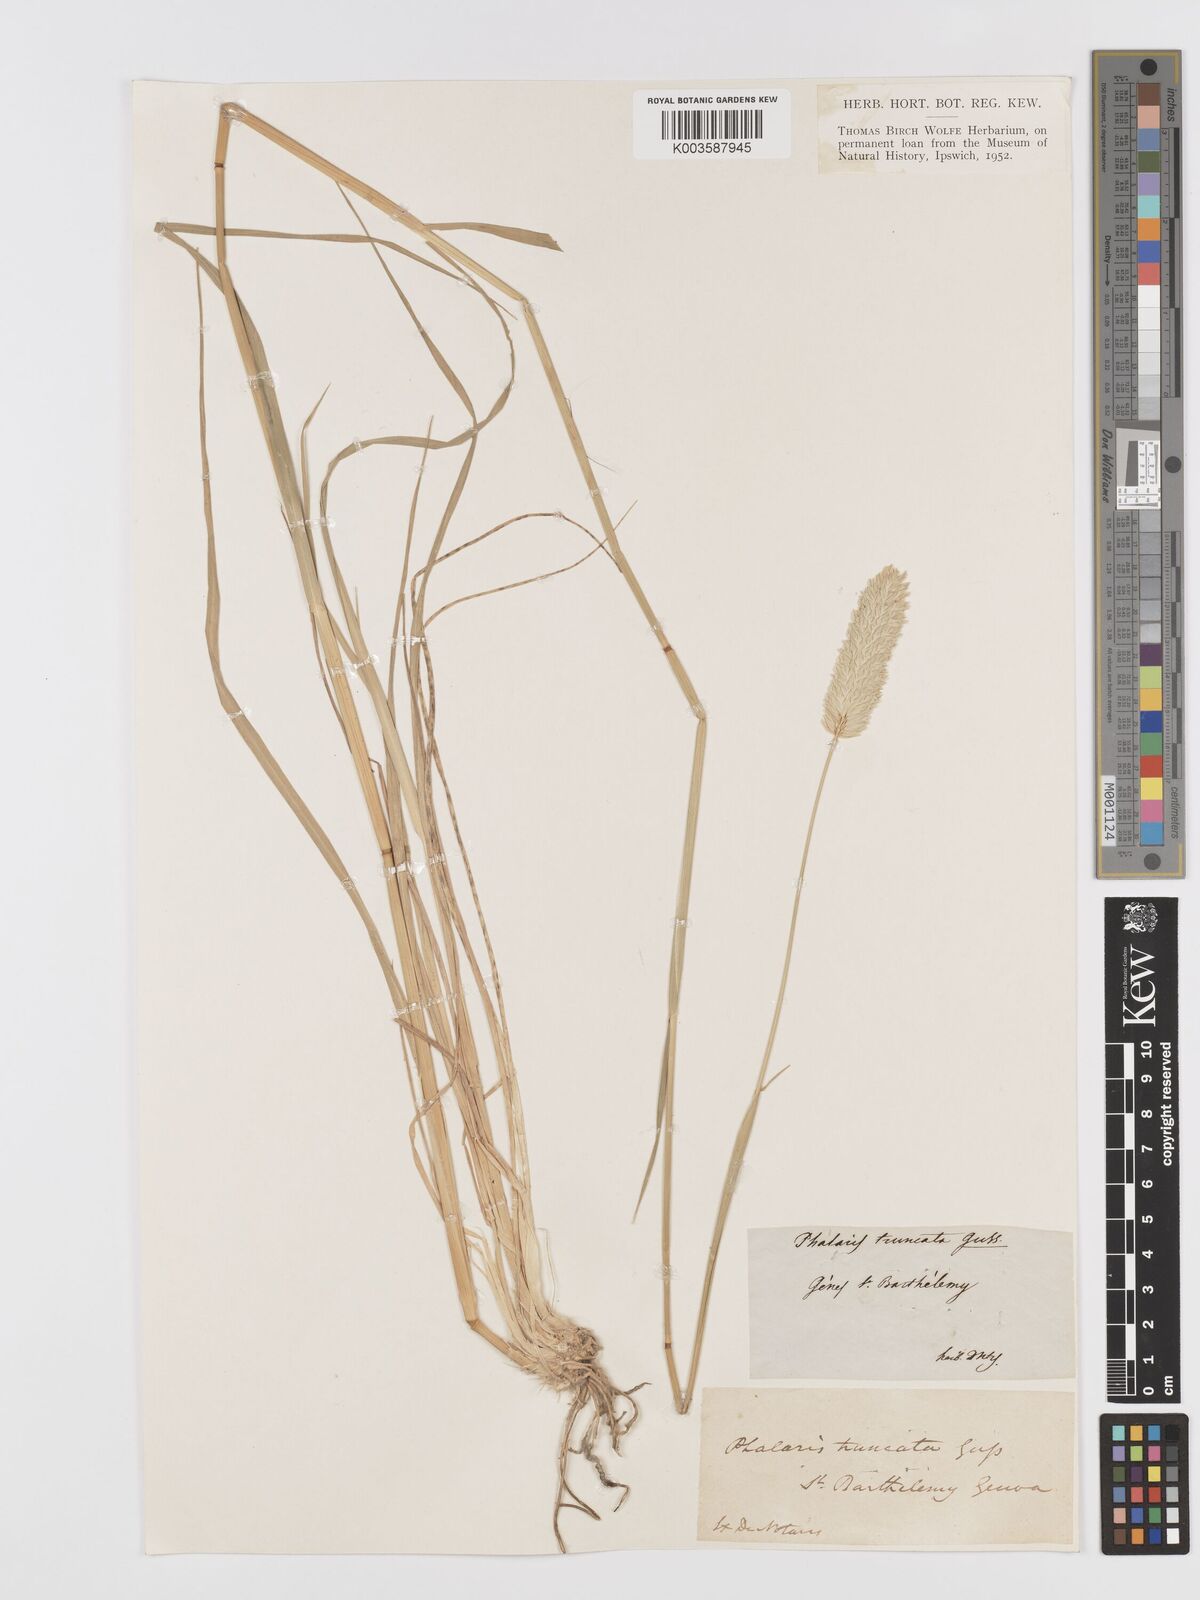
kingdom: Plantae
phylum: Tracheophyta
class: Liliopsida
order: Poales
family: Poaceae
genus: Phalaris
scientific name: Phalaris truncata
